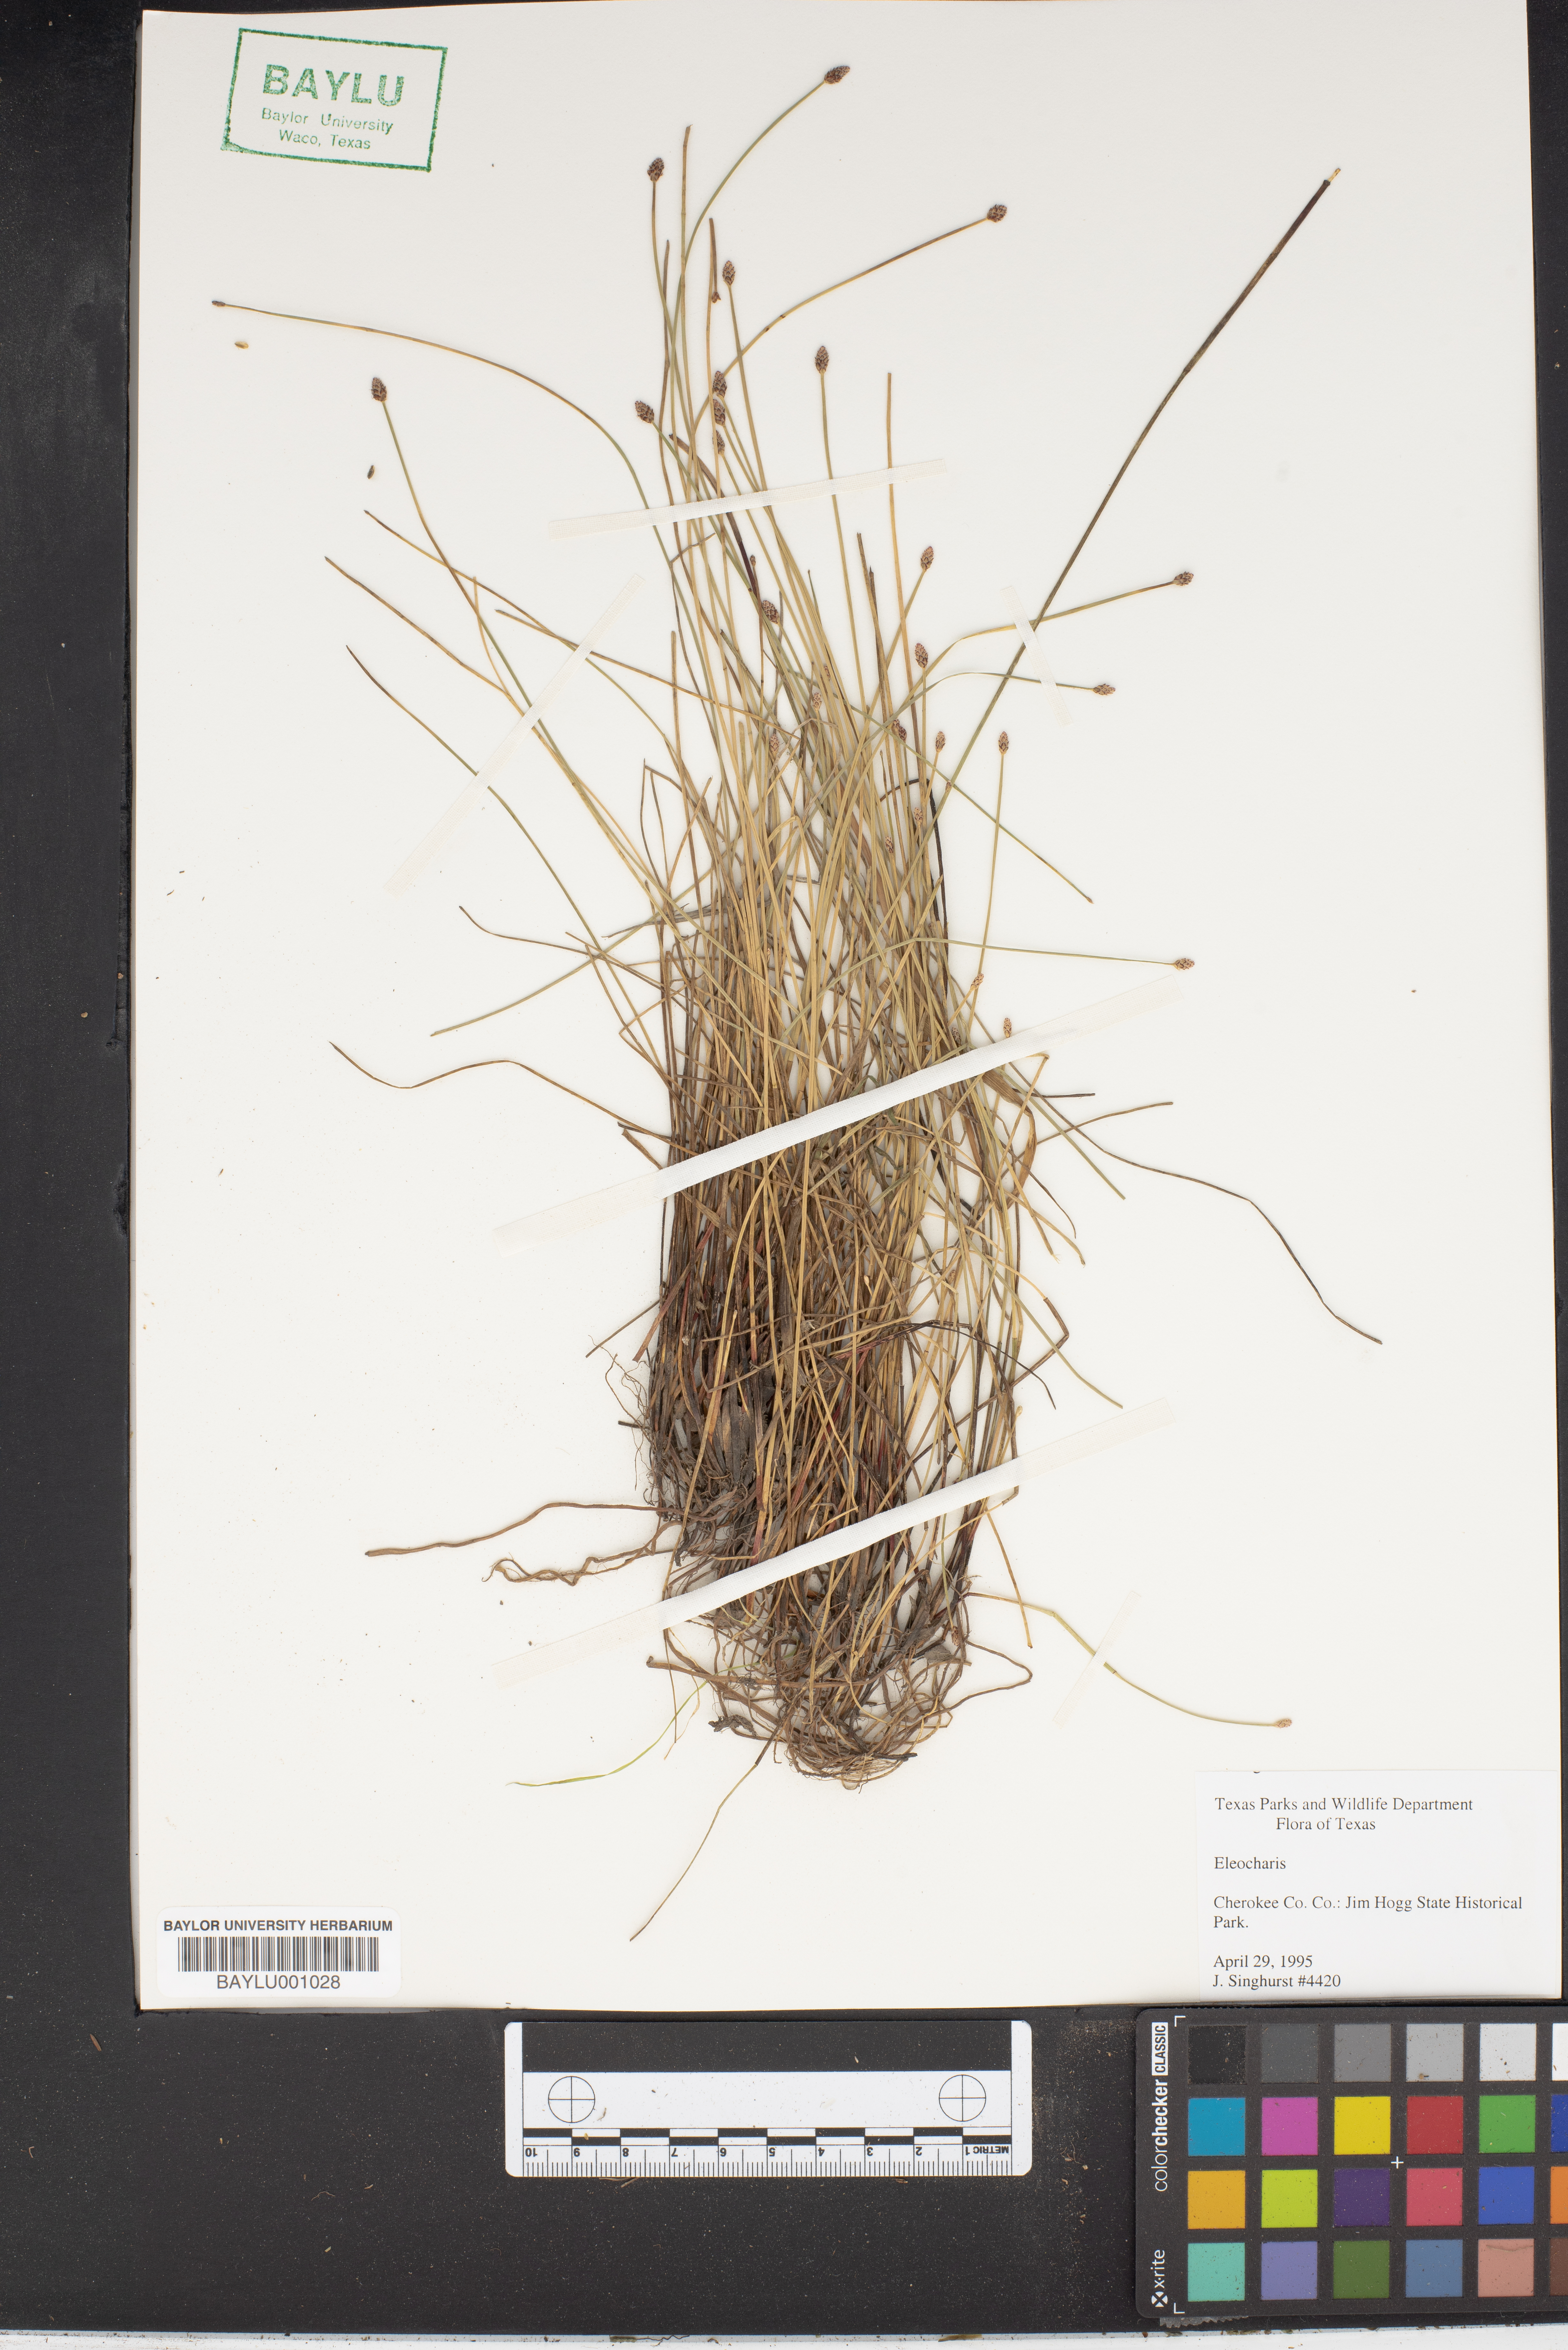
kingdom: Plantae
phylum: Tracheophyta
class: Liliopsida
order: Poales
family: Cyperaceae
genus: Eleocharis
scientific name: Eleocharis
